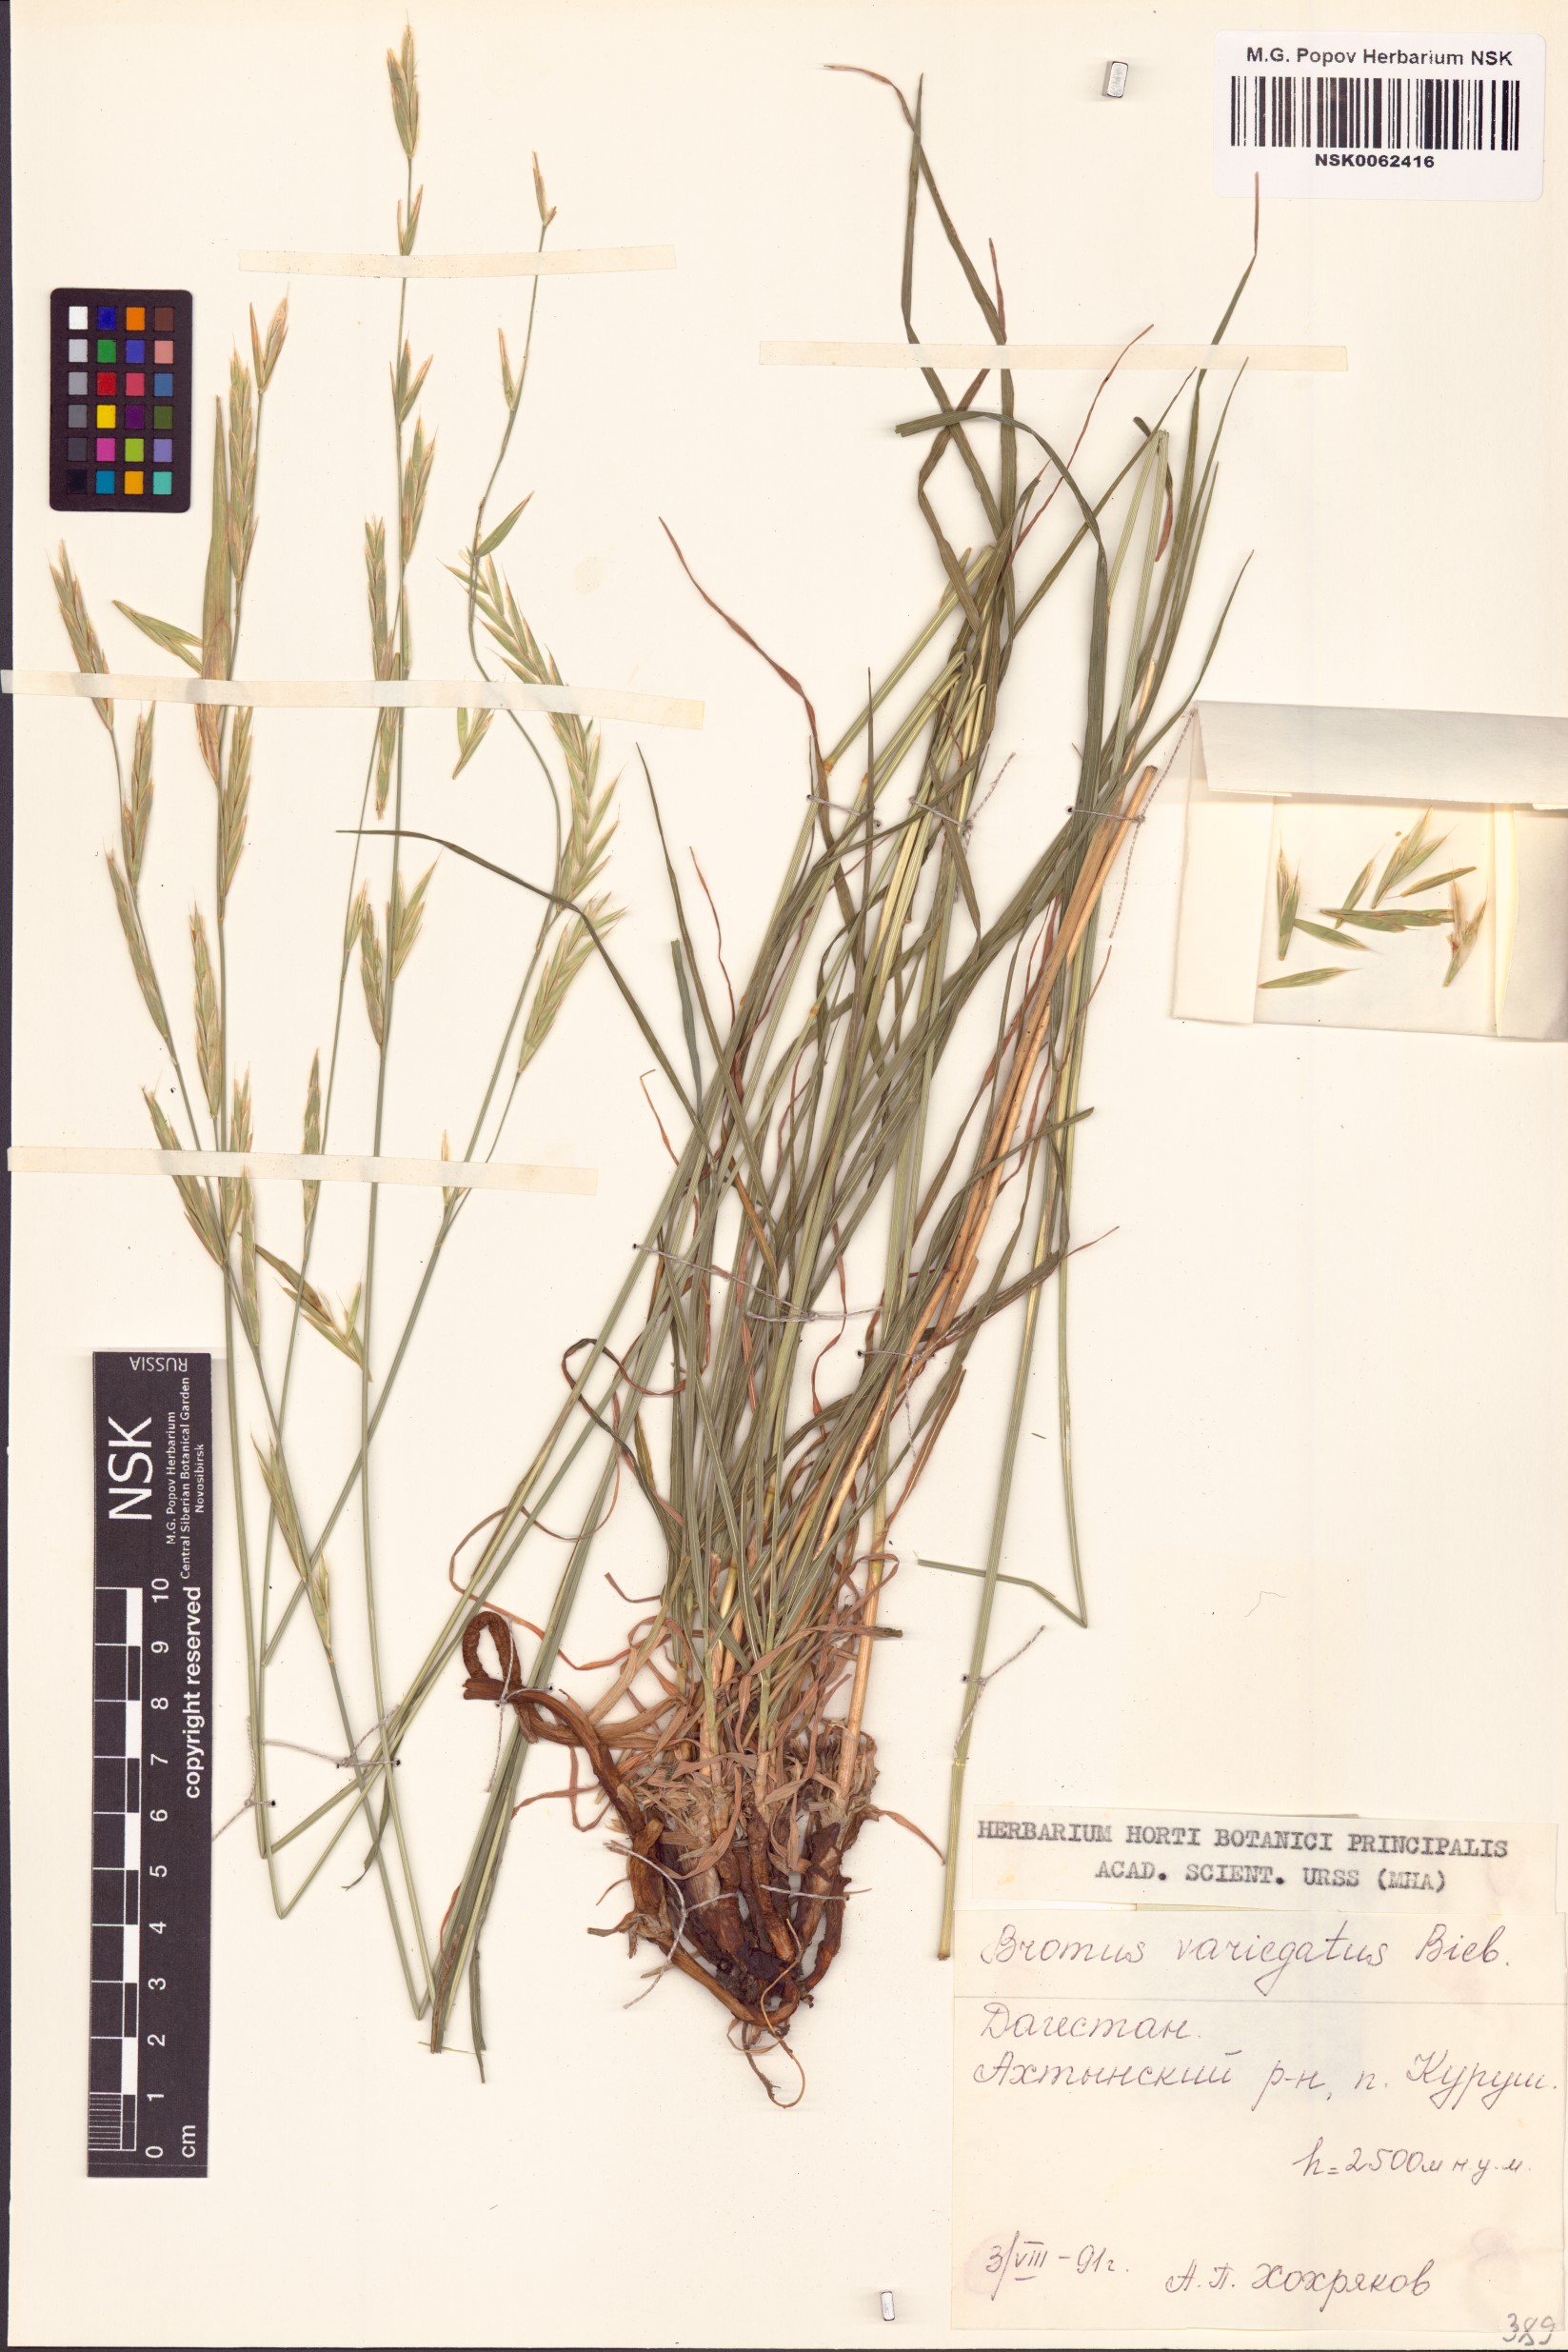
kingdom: Plantae
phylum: Tracheophyta
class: Liliopsida
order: Poales
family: Poaceae
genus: Bromus
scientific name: Bromus variegatus
